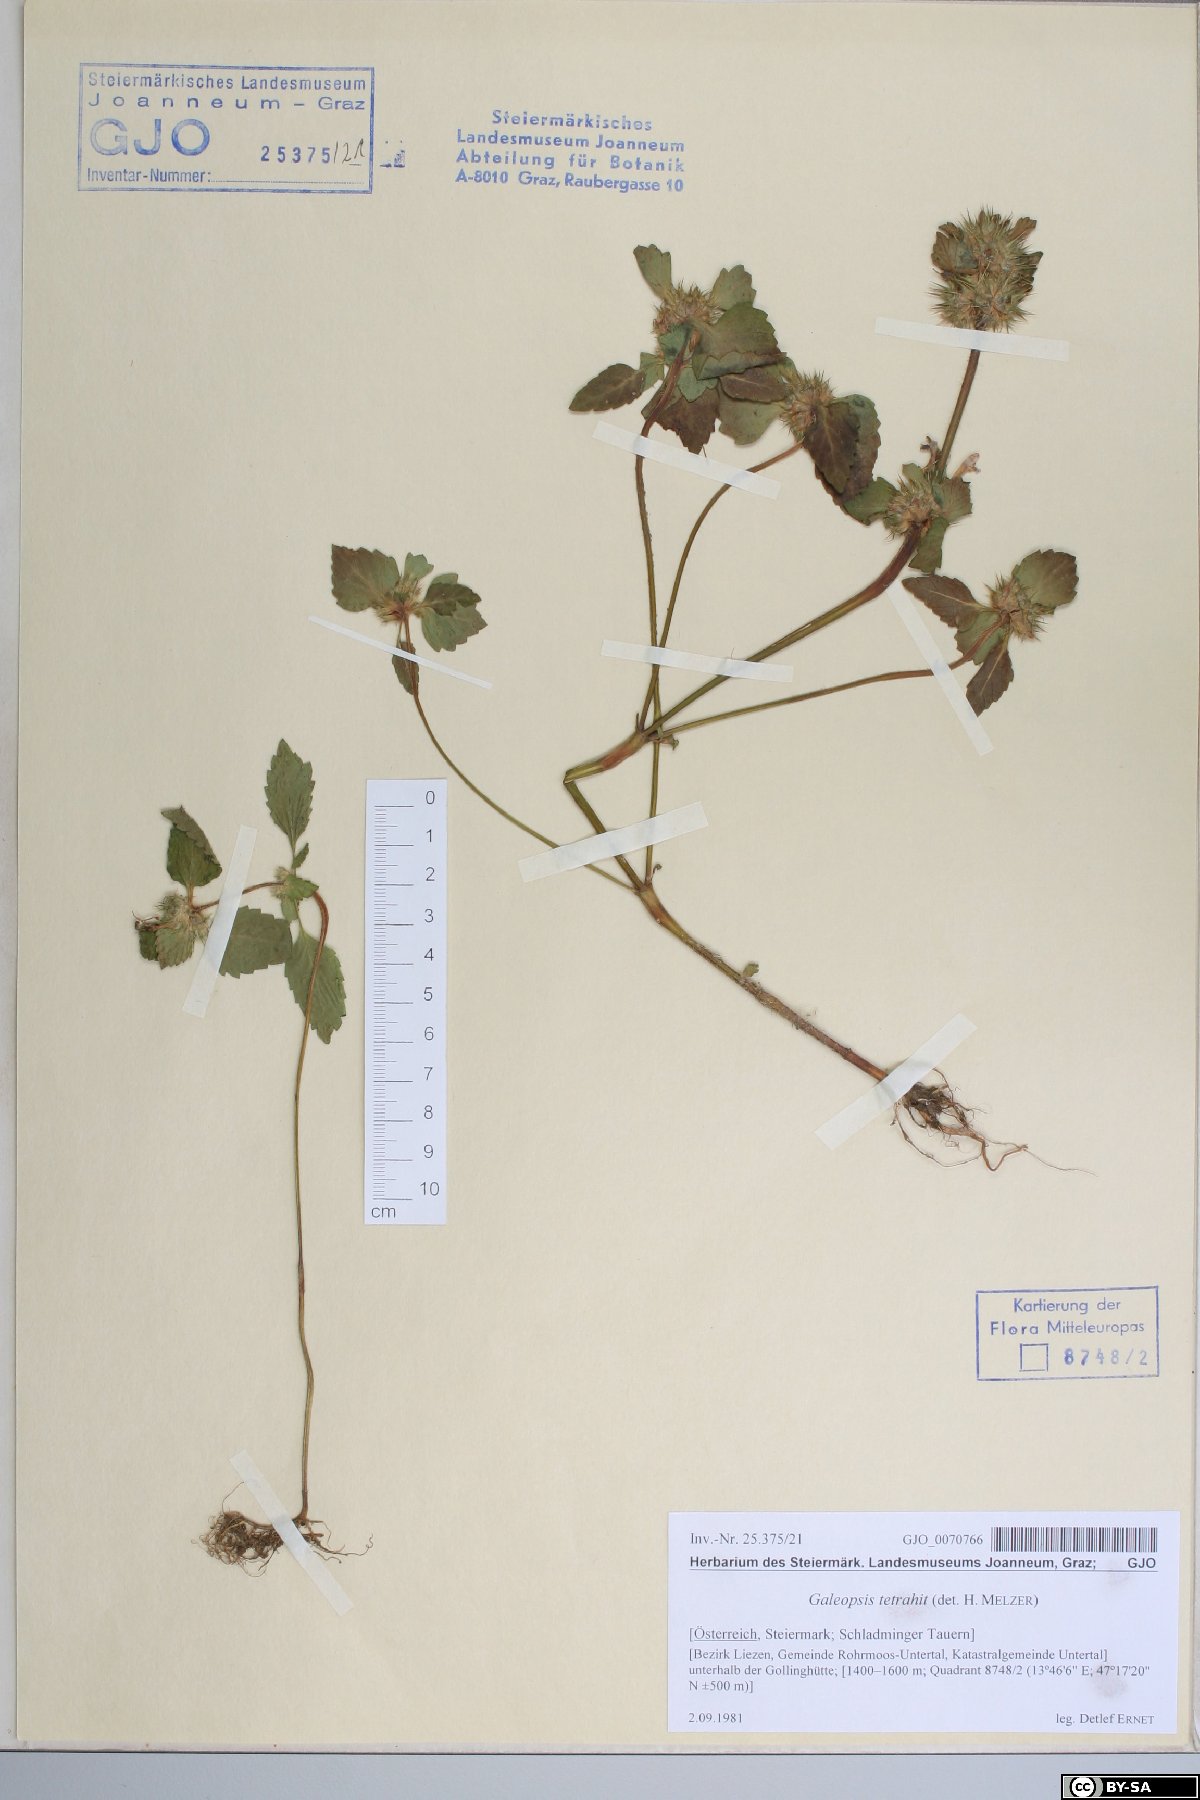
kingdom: Plantae
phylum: Tracheophyta
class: Magnoliopsida
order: Lamiales
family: Lamiaceae
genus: Galeopsis
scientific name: Galeopsis tetrahit
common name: Common hemp-nettle
